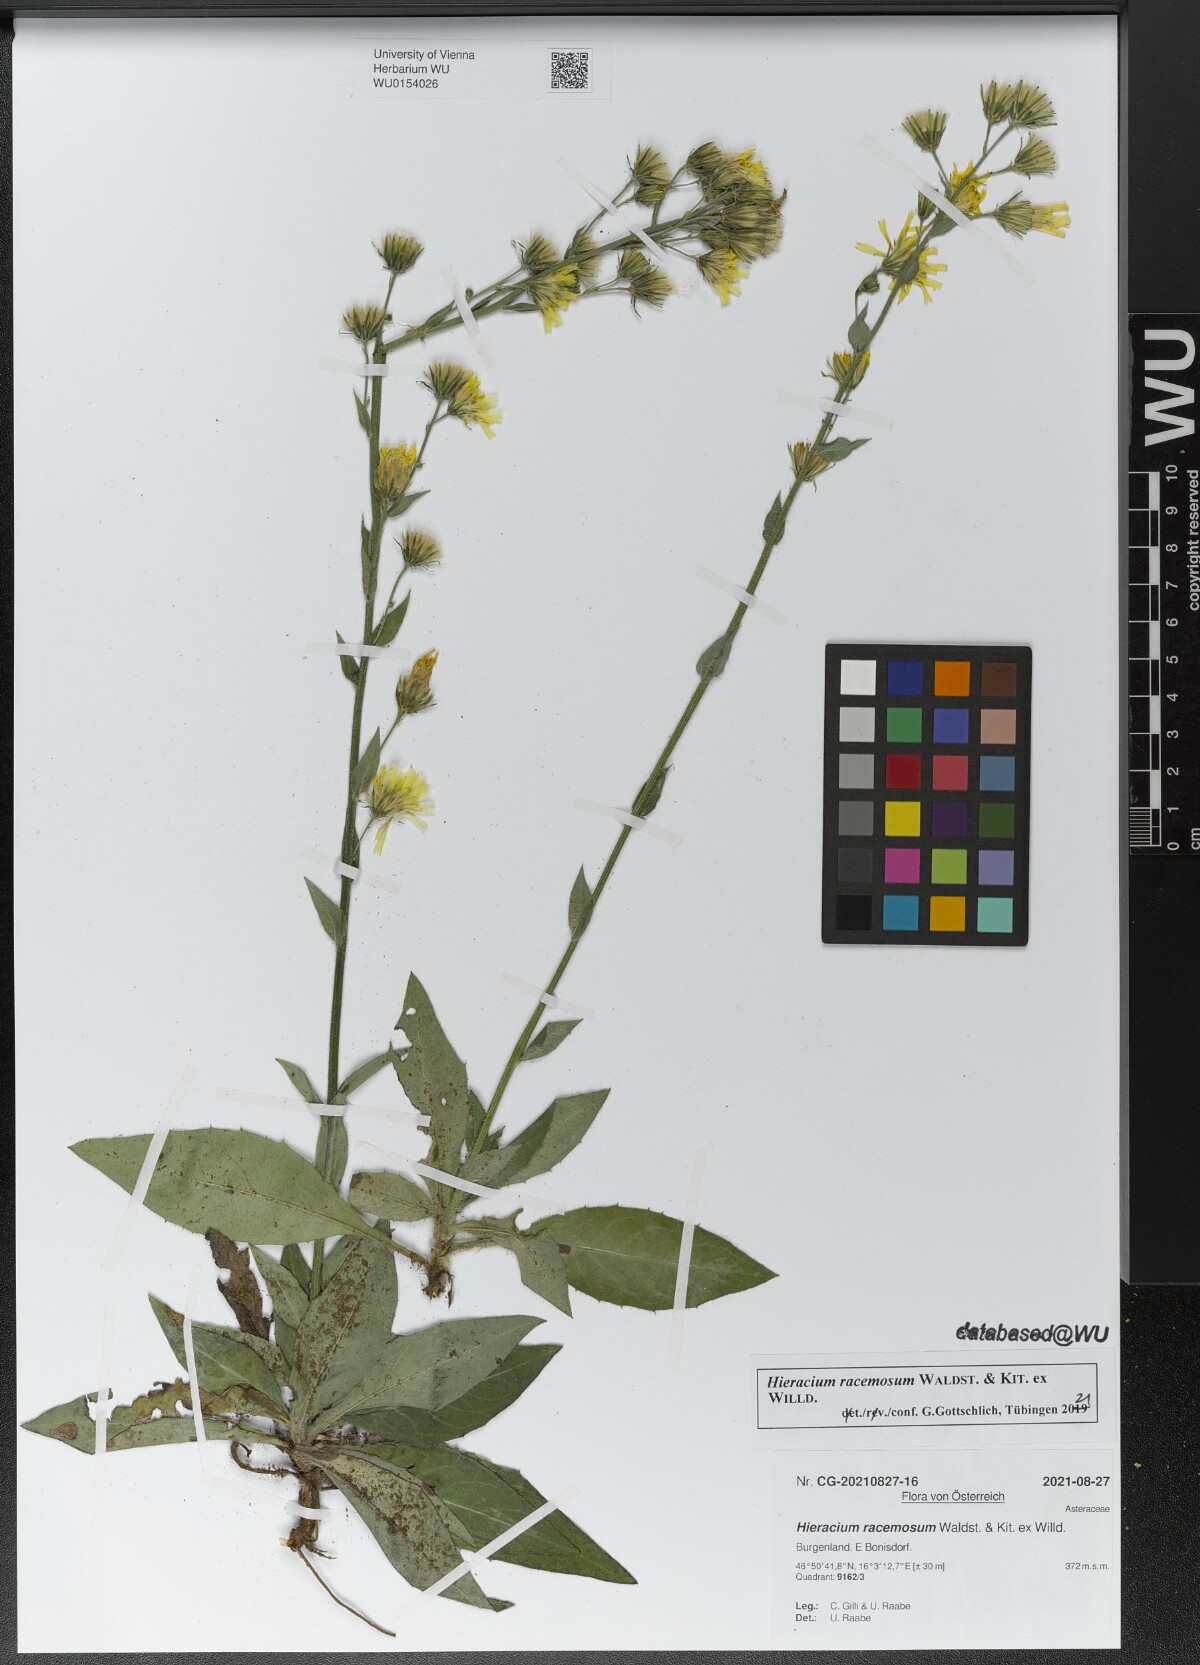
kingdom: Plantae
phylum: Tracheophyta
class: Magnoliopsida
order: Asterales
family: Asteraceae
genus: Hieracium
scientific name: Hieracium racemosum
